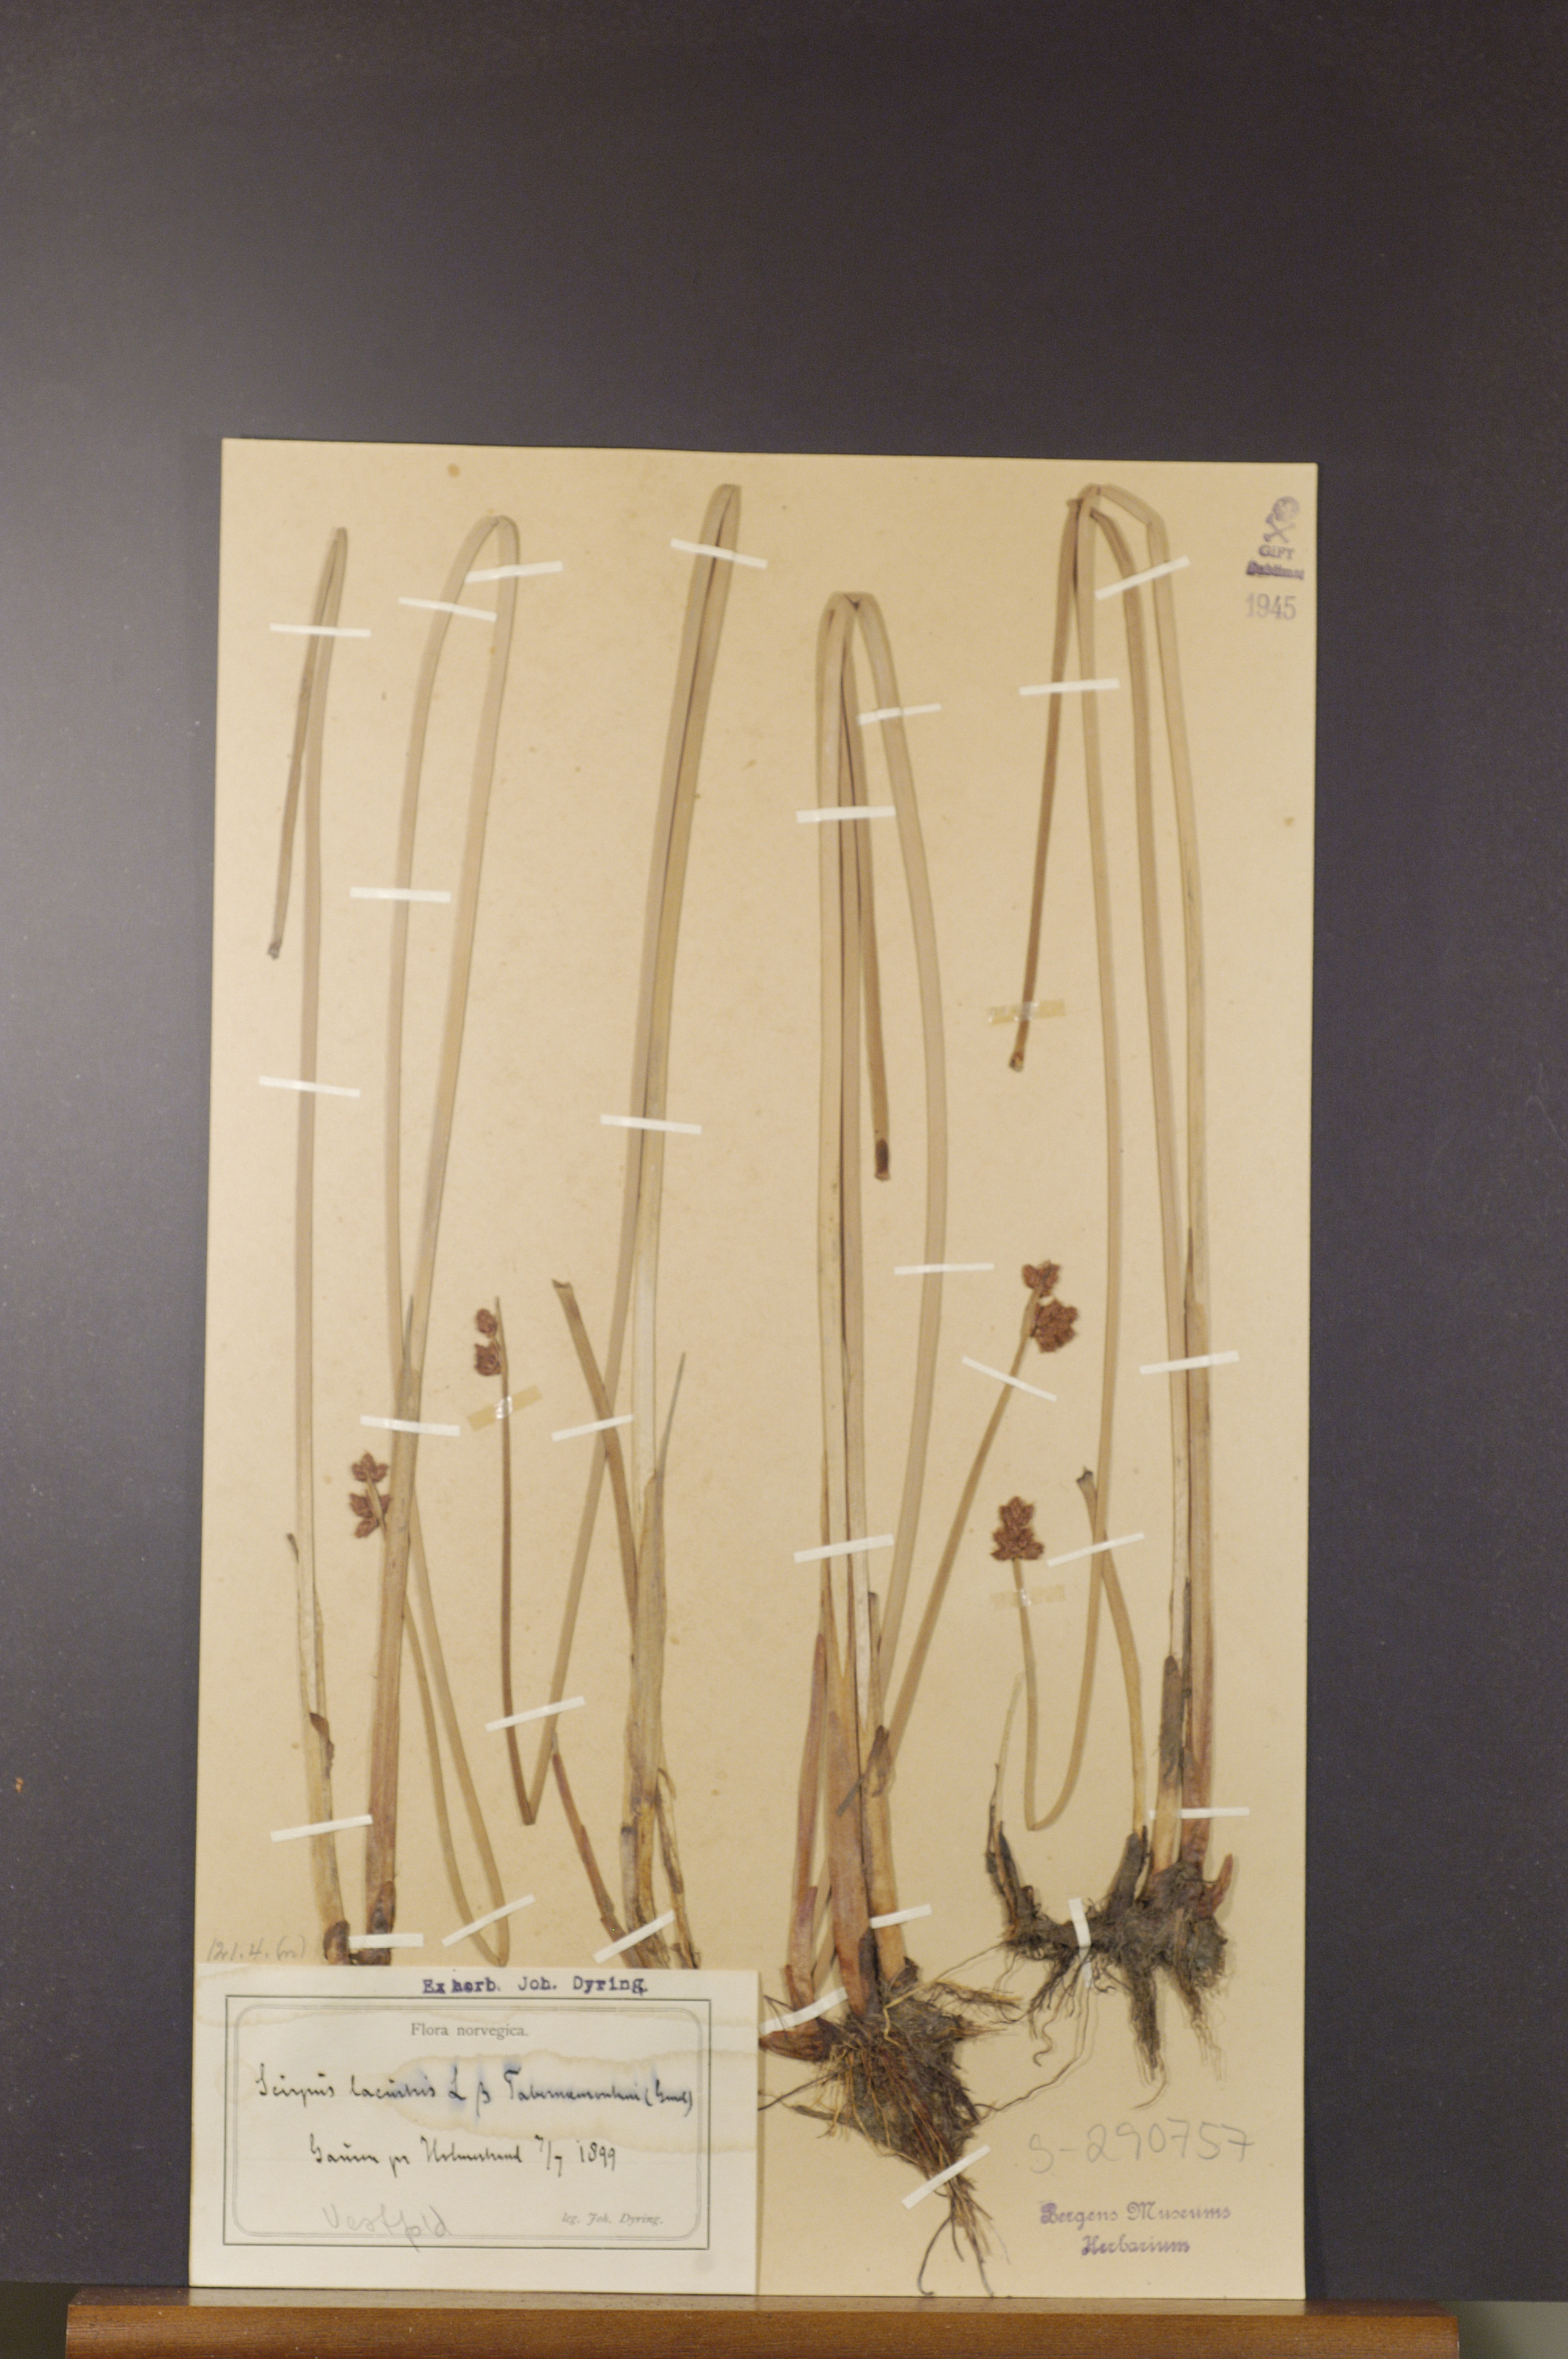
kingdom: Plantae
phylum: Tracheophyta
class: Liliopsida
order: Poales
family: Cyperaceae
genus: Schoenoplectus
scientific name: Schoenoplectus tabernaemontani
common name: Grey club-rush
